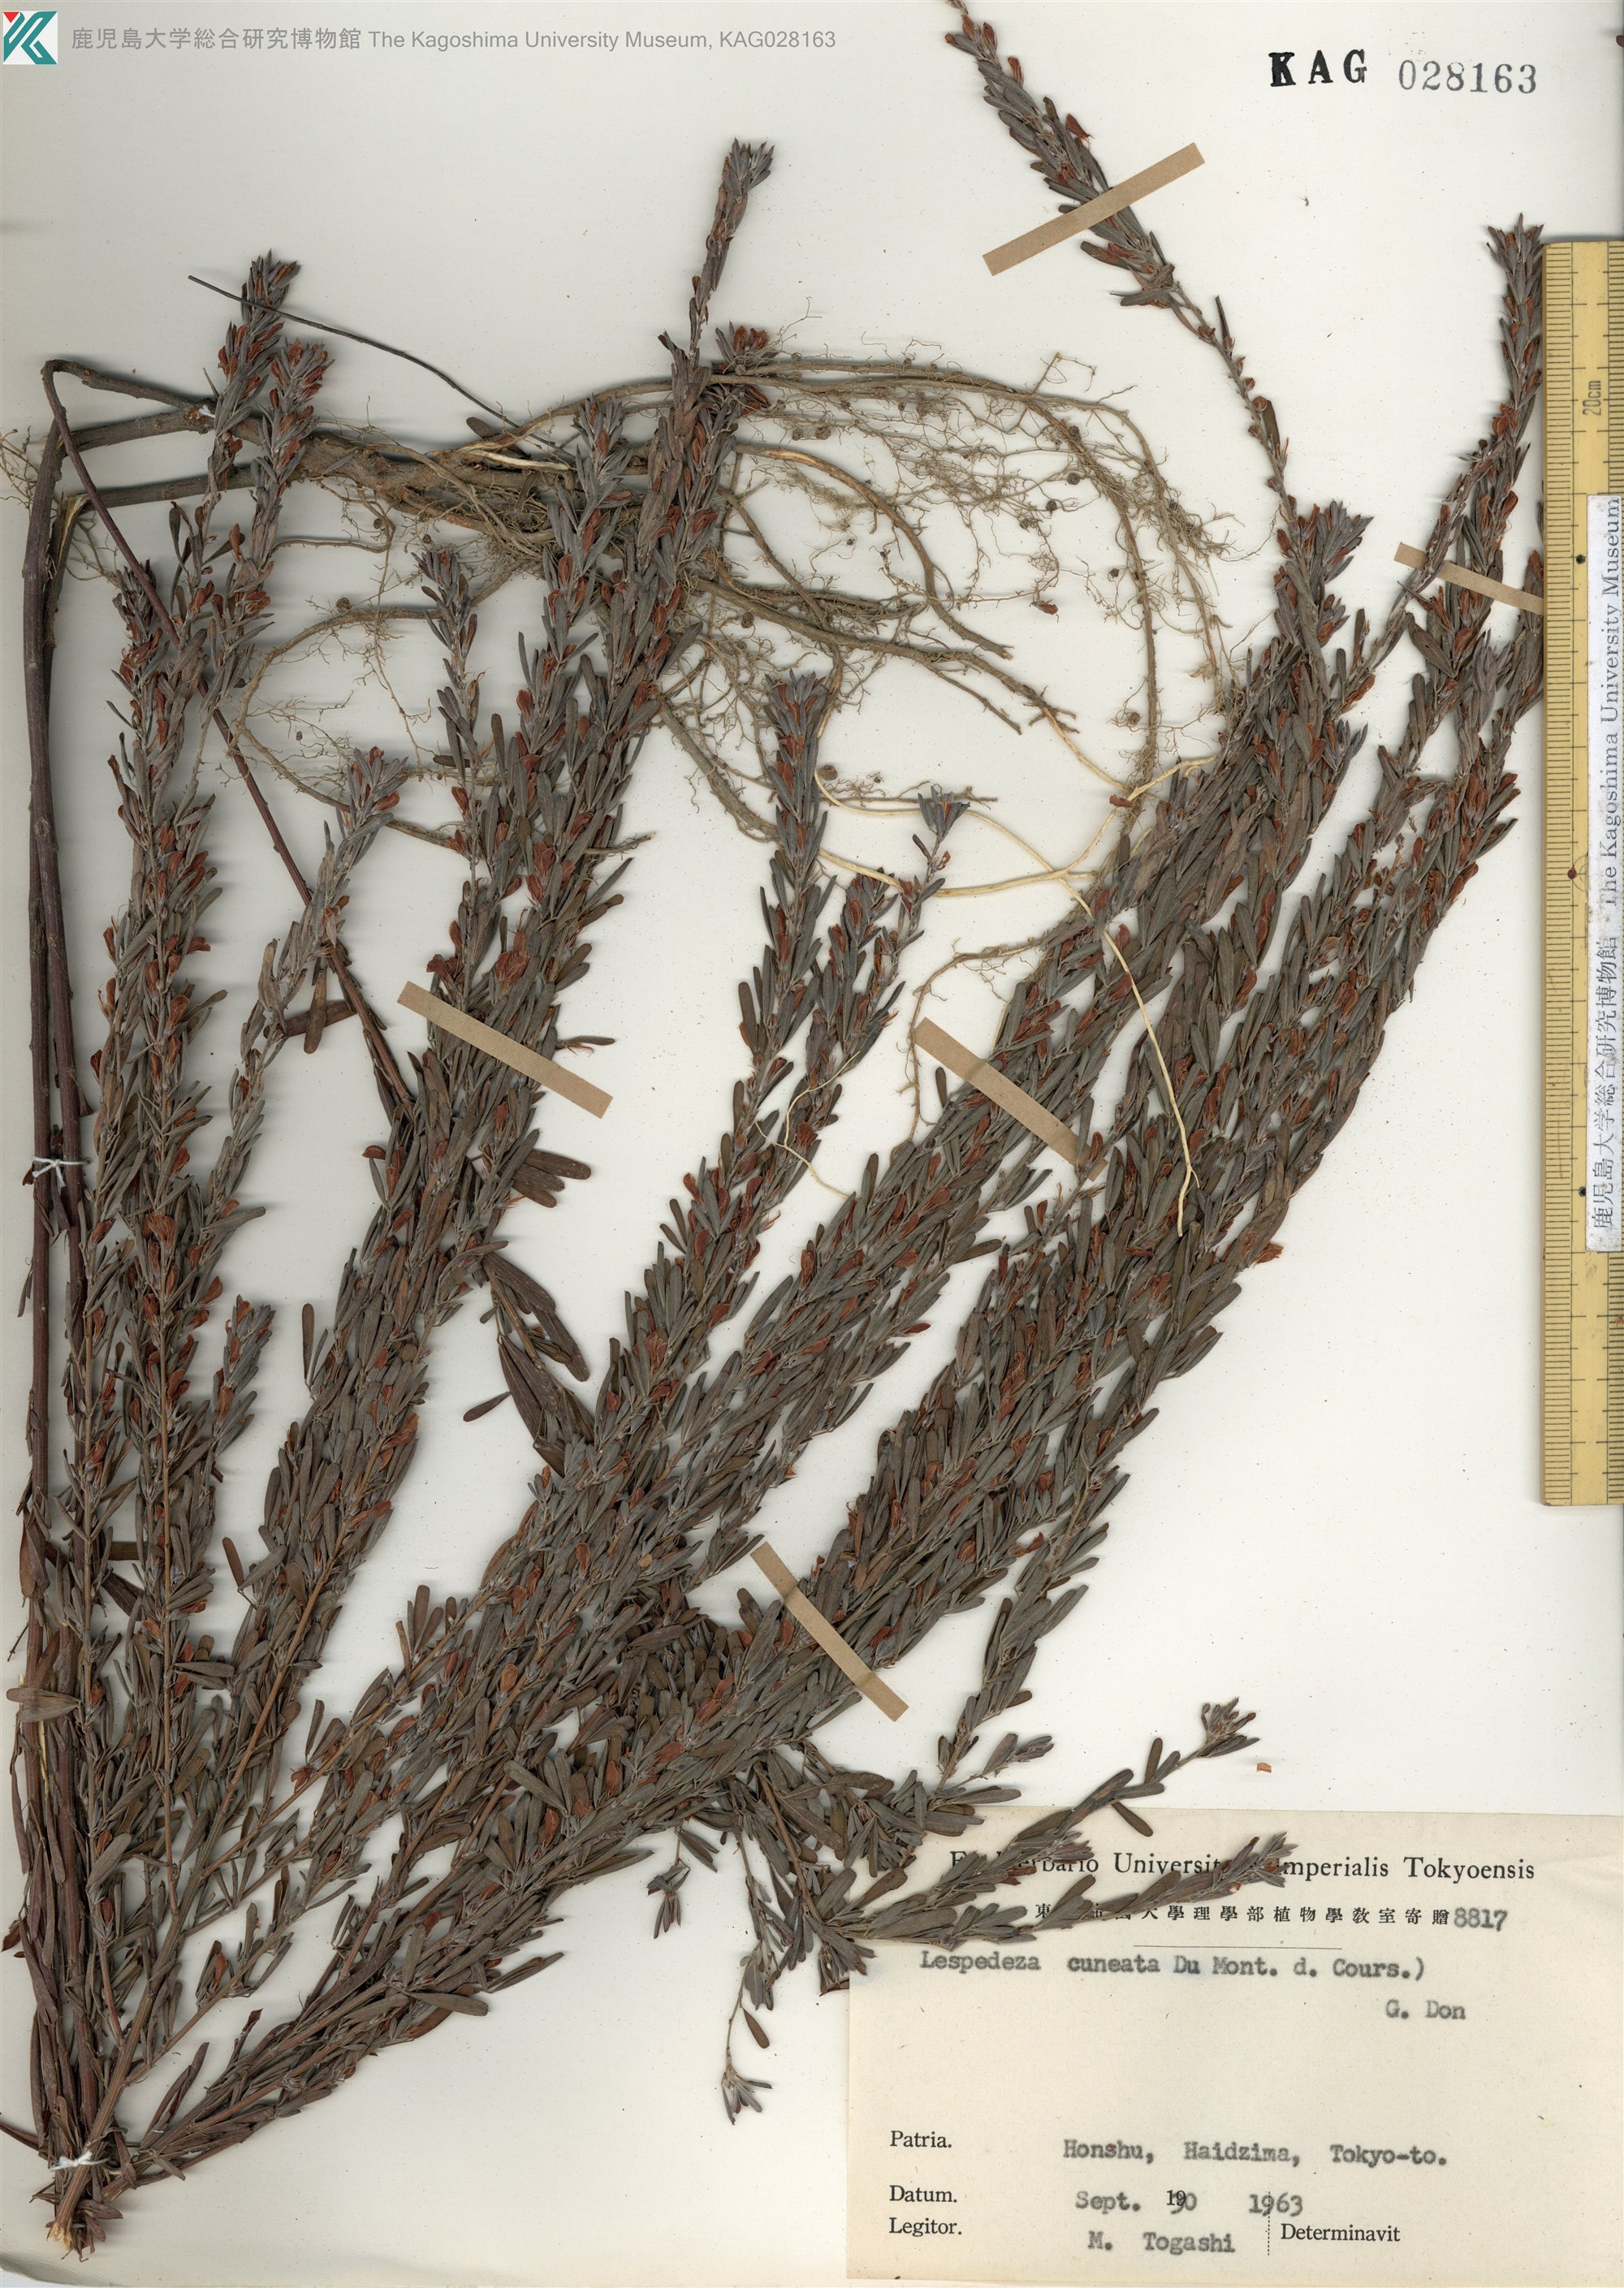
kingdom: Plantae
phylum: Tracheophyta
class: Magnoliopsida
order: Fabales
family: Fabaceae
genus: Lespedeza
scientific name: Lespedeza cuneata
